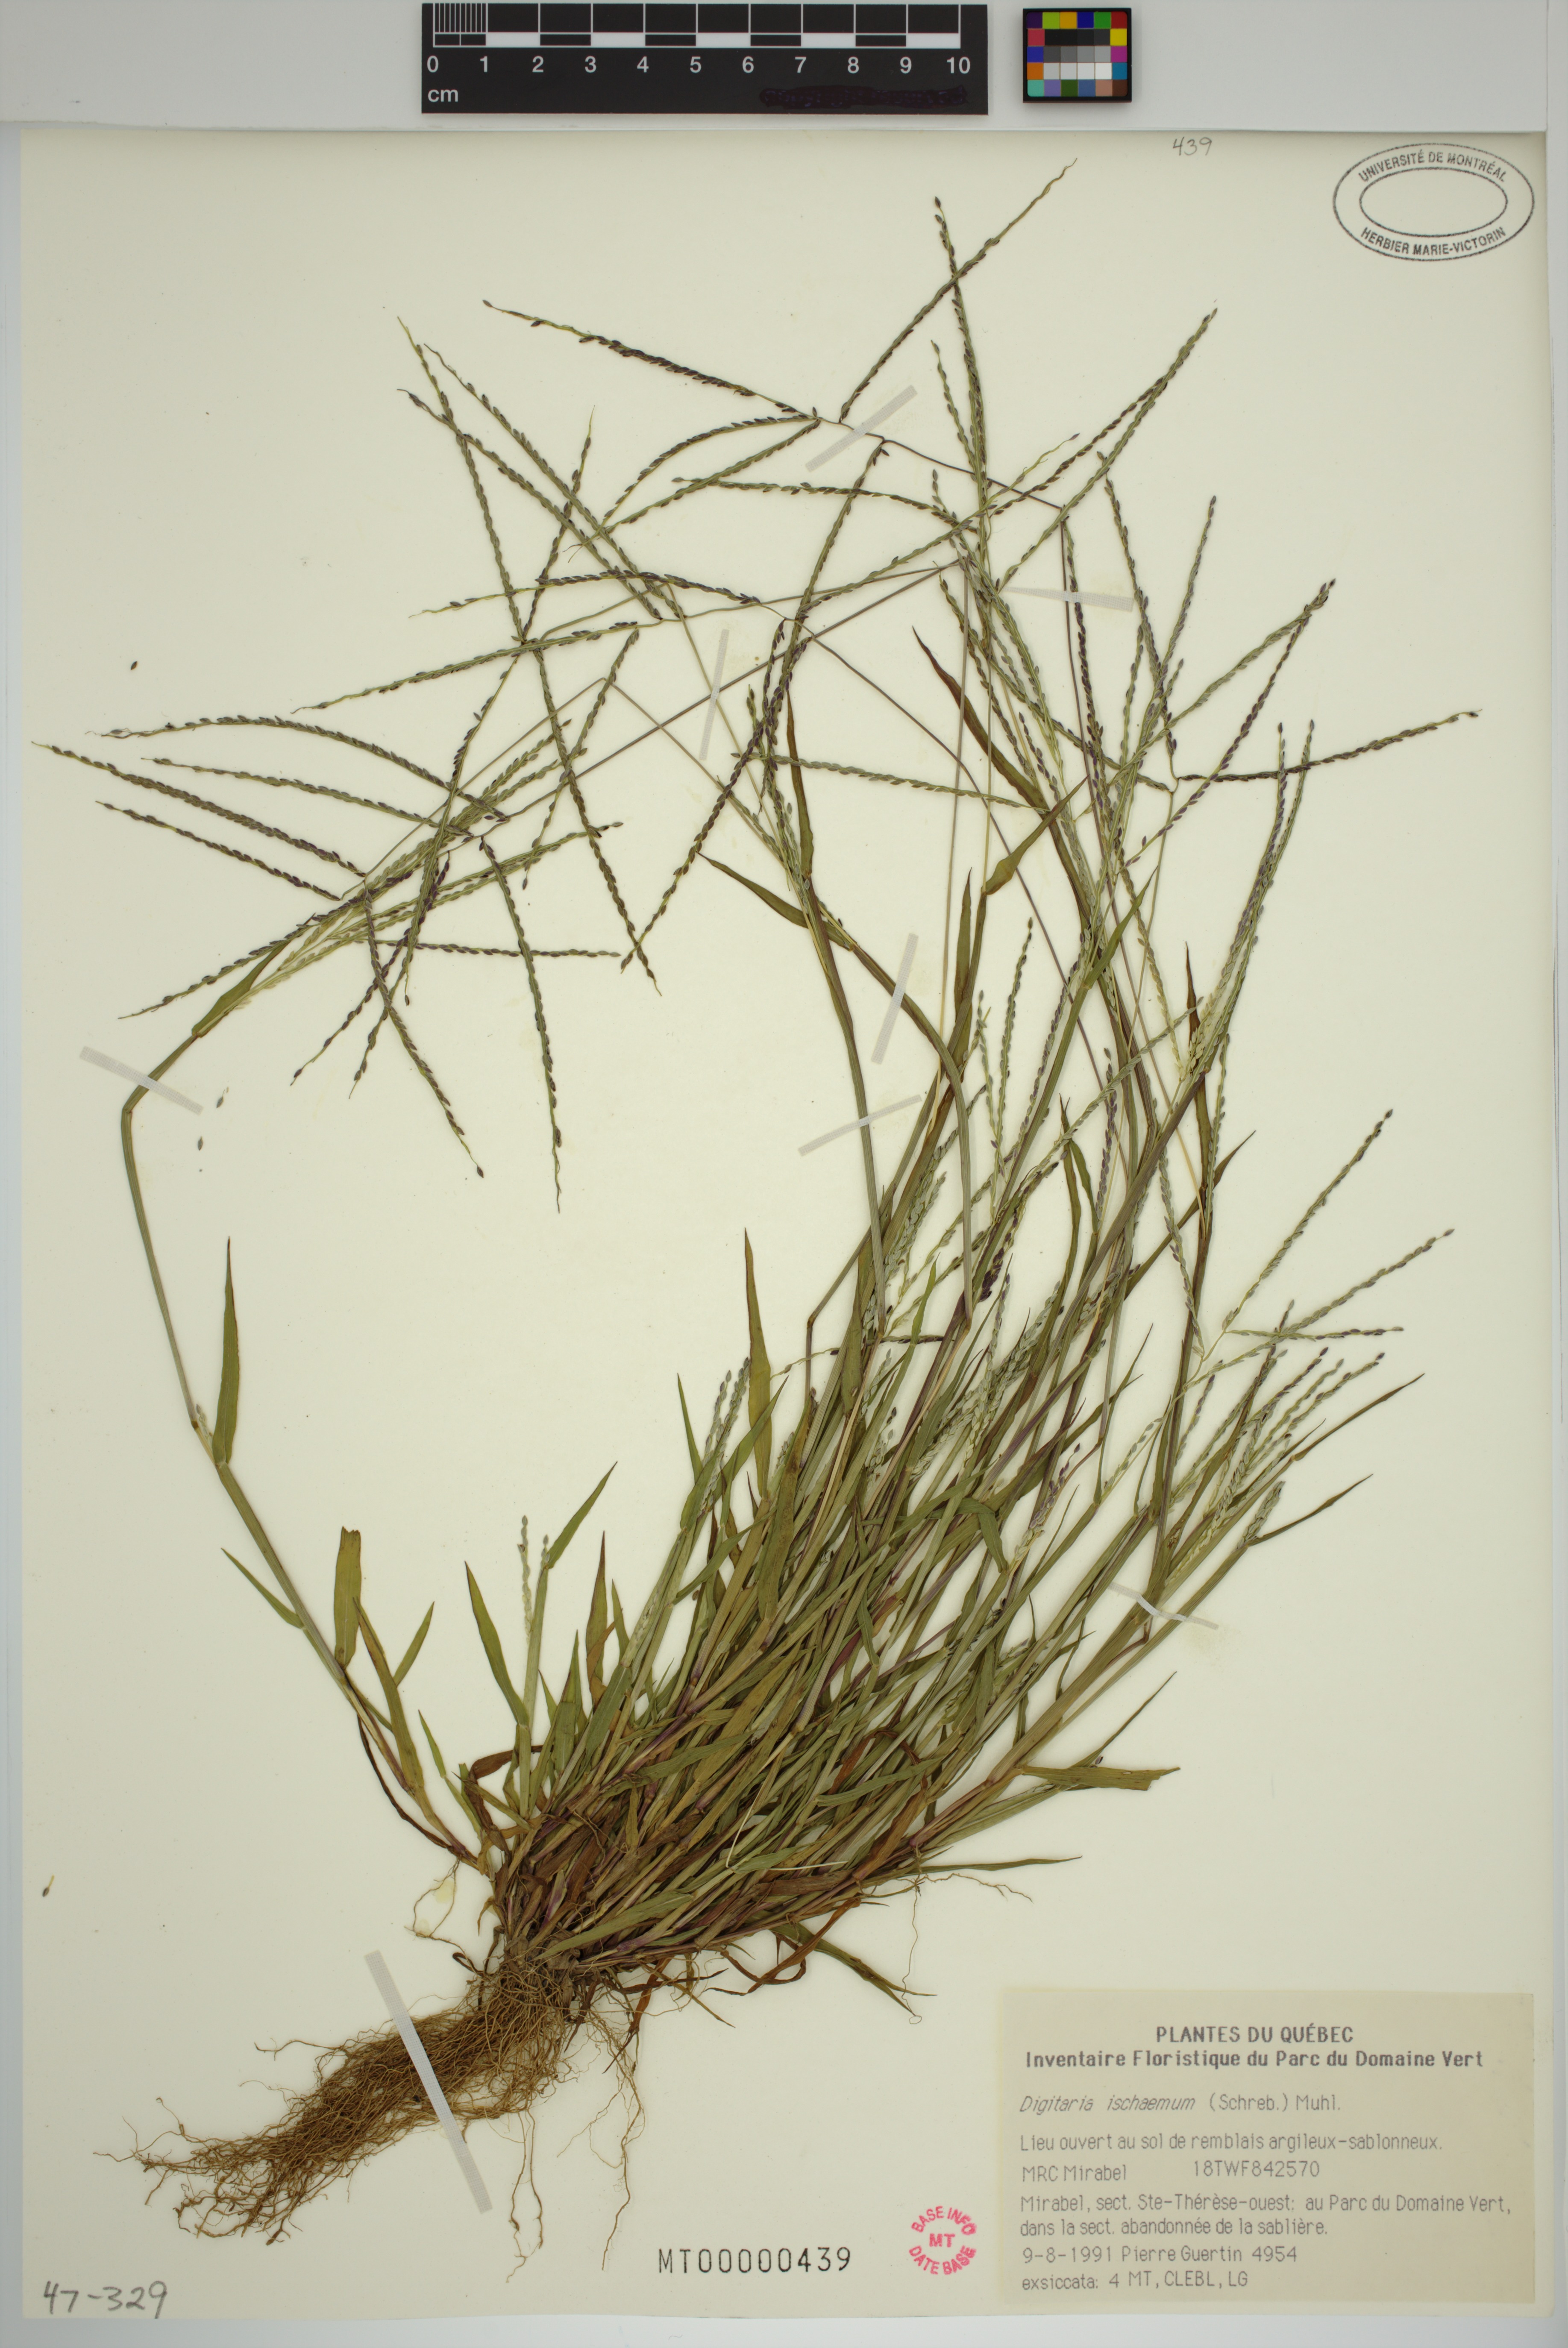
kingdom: Plantae
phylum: Tracheophyta
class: Liliopsida
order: Poales
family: Poaceae
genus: Digitaria
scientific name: Digitaria ischaemum
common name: Smooth crabgrass
